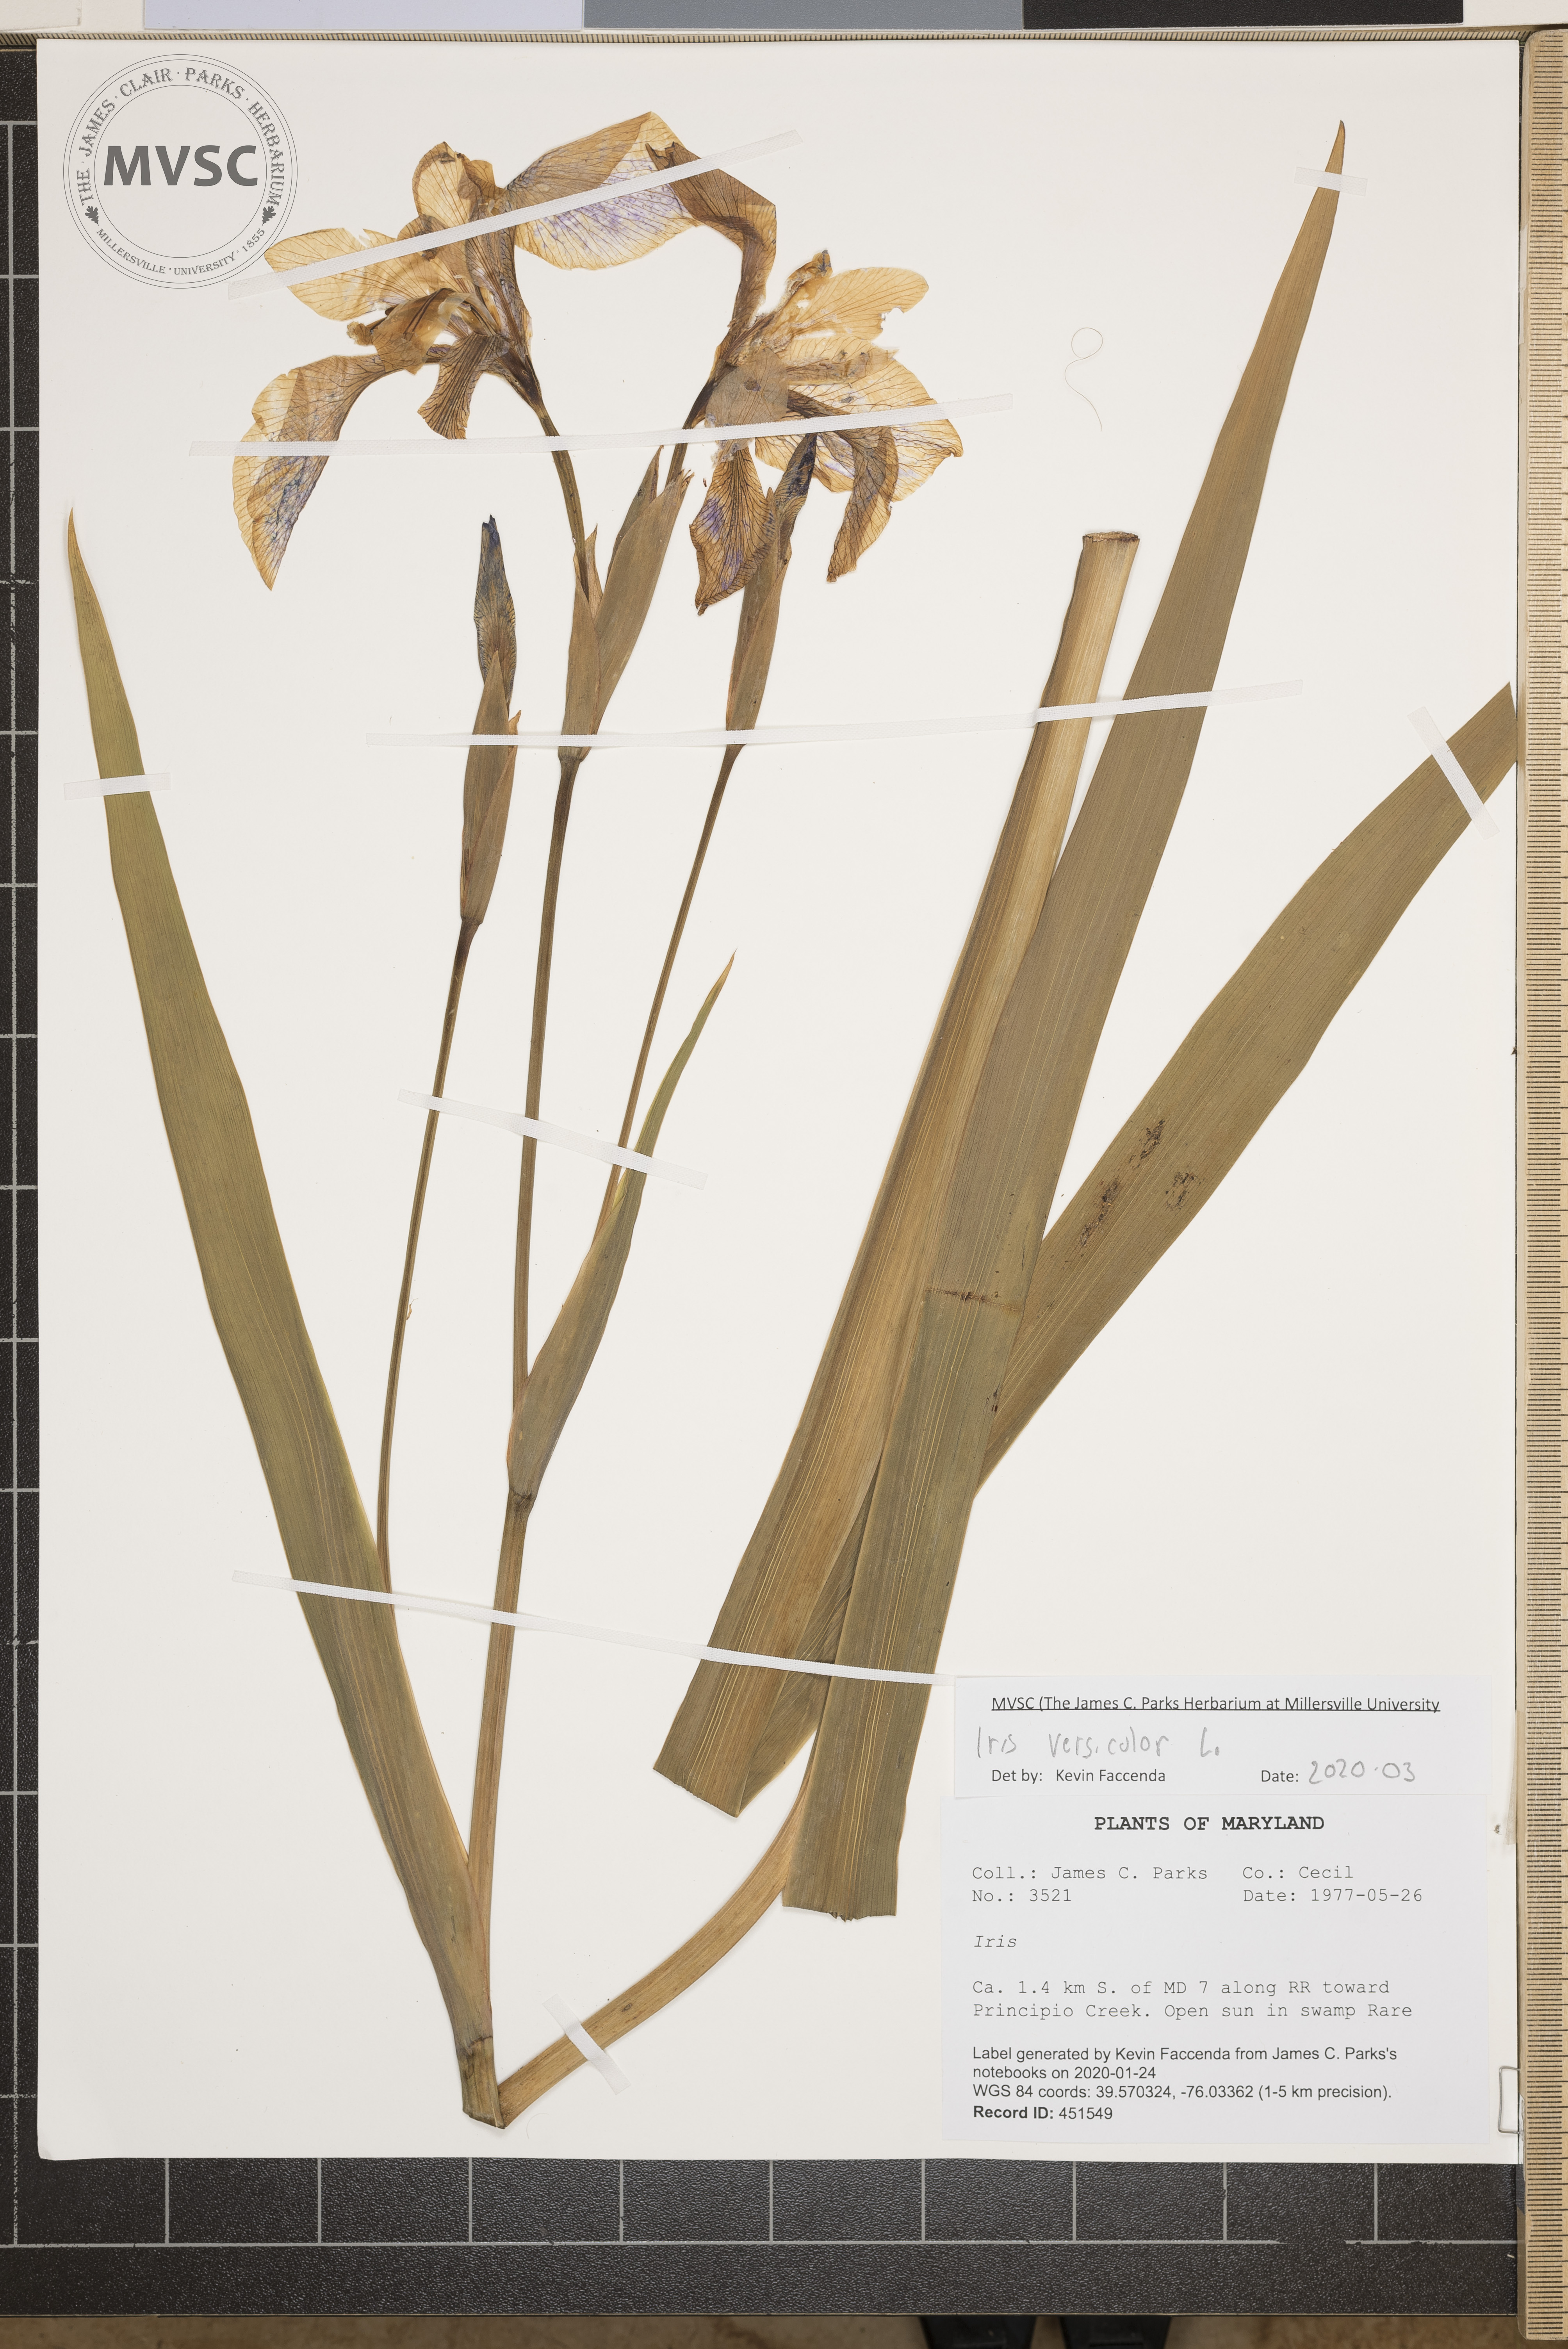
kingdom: Plantae
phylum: Tracheophyta
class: Liliopsida
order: Asparagales
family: Iridaceae
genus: Iris
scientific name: Iris versicolor
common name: Purple iris
